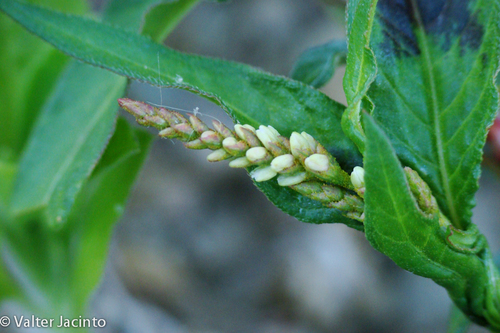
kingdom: Plantae
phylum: Tracheophyta
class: Magnoliopsida
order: Caryophyllales
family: Polygonaceae
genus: Persicaria
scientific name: Persicaria maculosa
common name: Redshank
